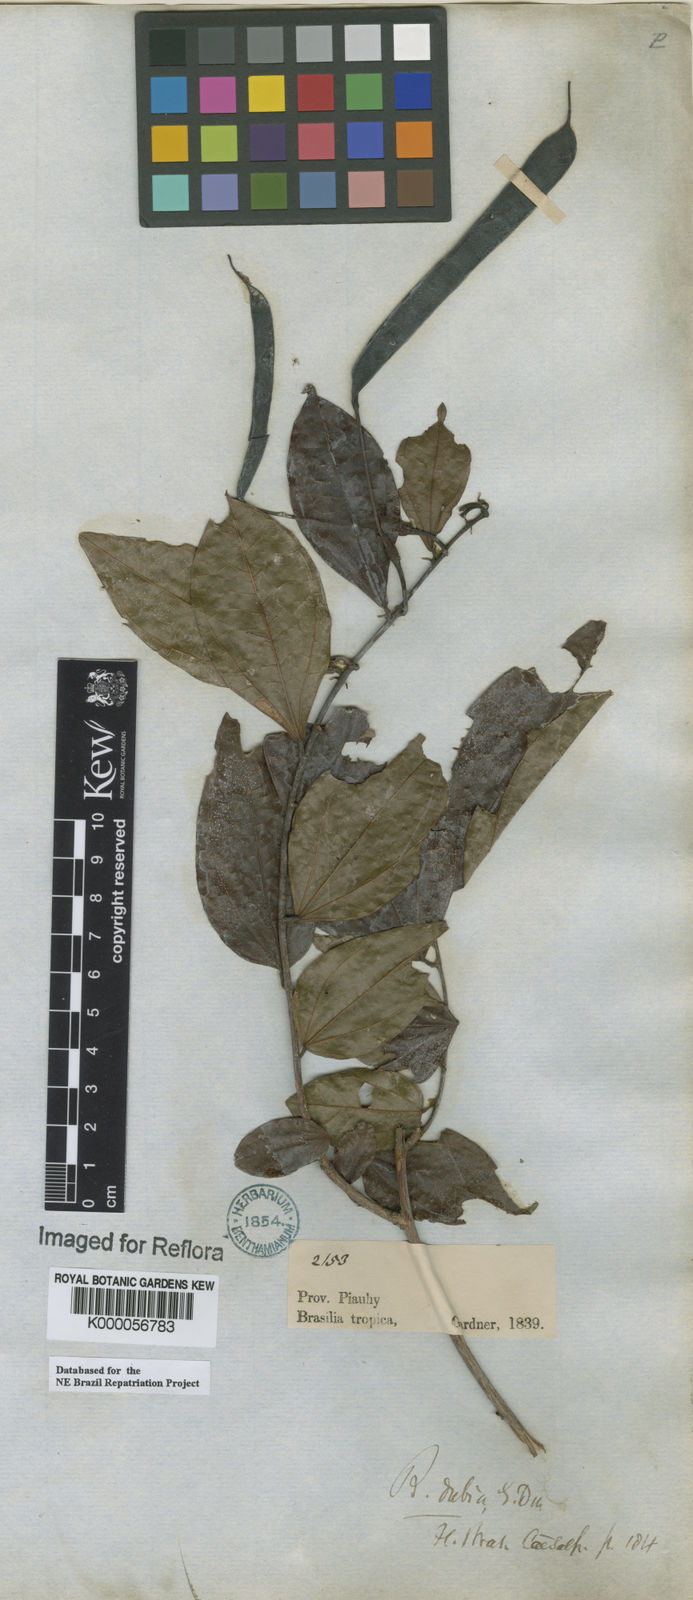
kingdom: Plantae
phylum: Tracheophyta
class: Magnoliopsida
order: Fabales
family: Fabaceae
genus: Bauhinia
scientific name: Bauhinia dubia
